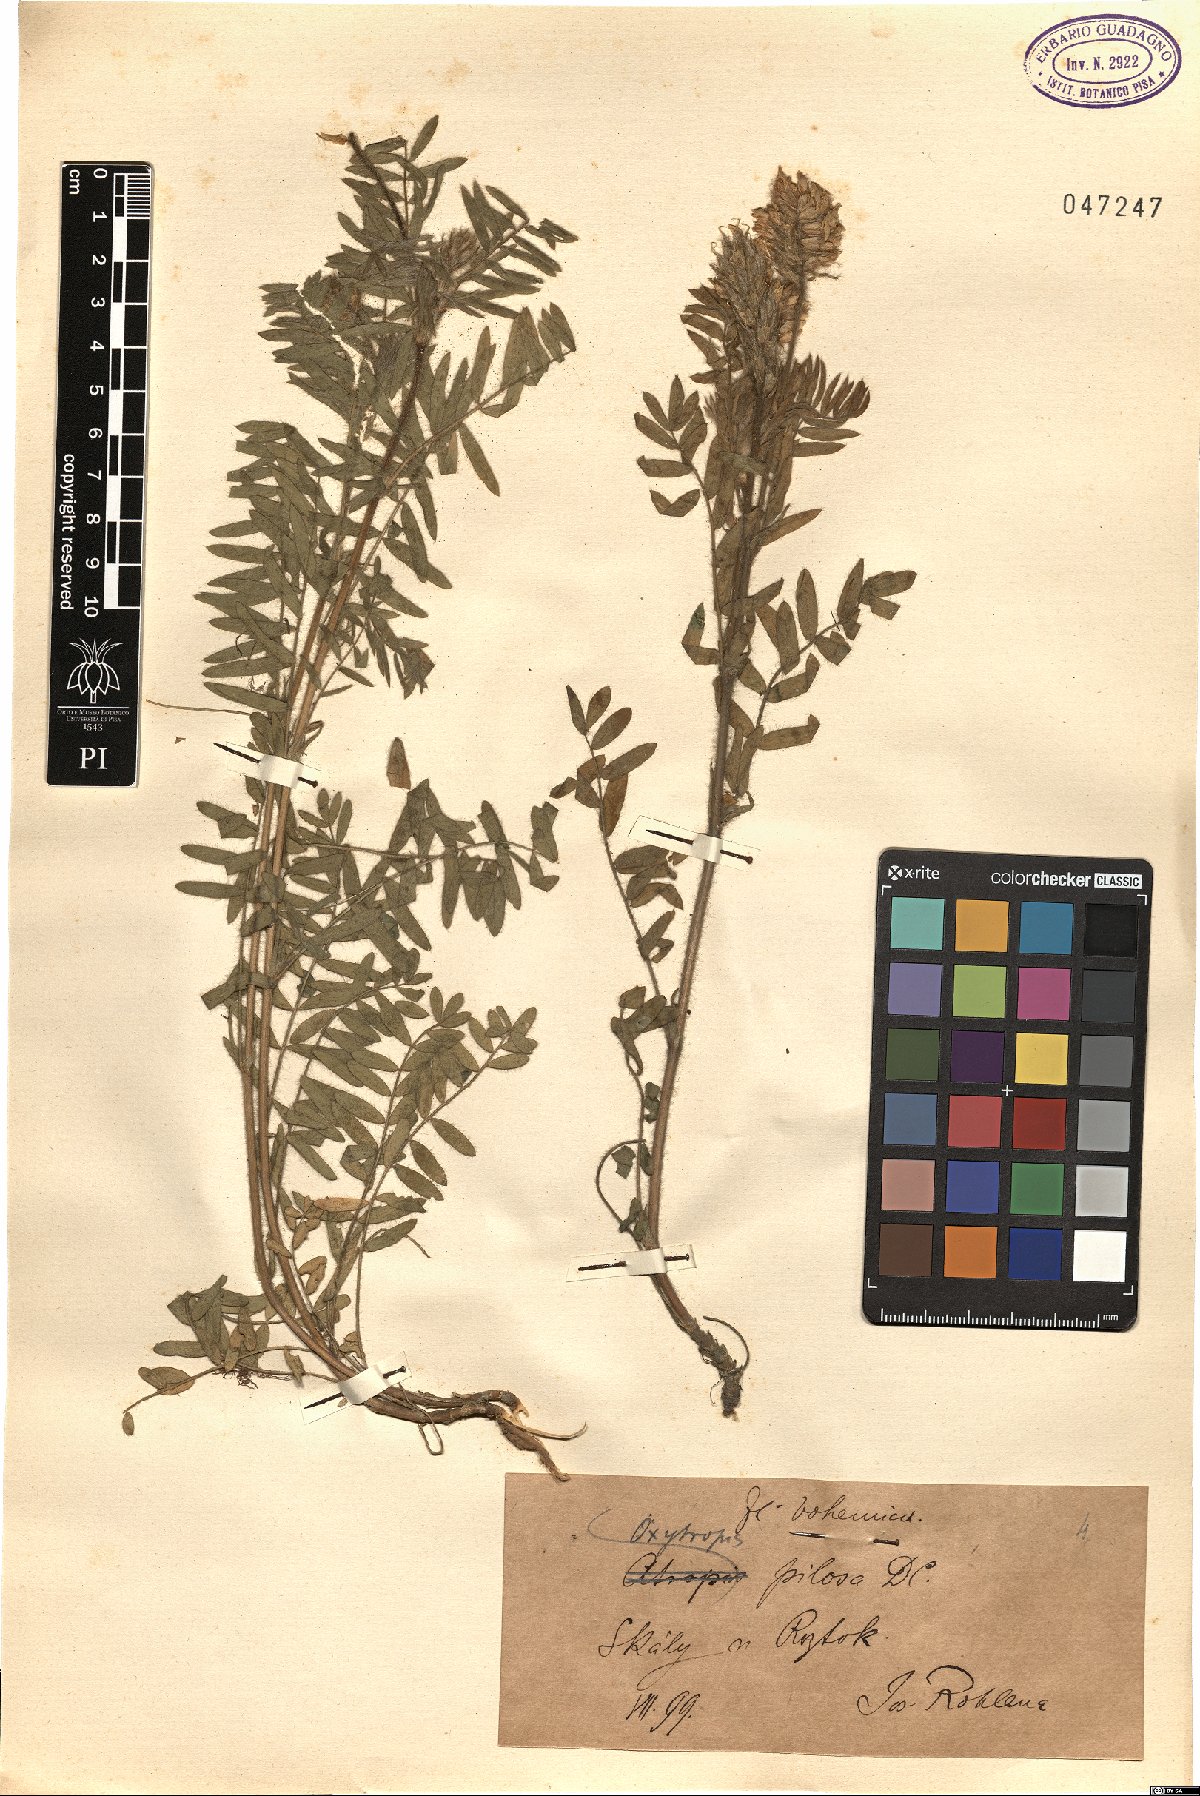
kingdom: Plantae
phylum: Tracheophyta
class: Magnoliopsida
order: Fabales
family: Fabaceae
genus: Oxytropis
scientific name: Oxytropis pilosa
